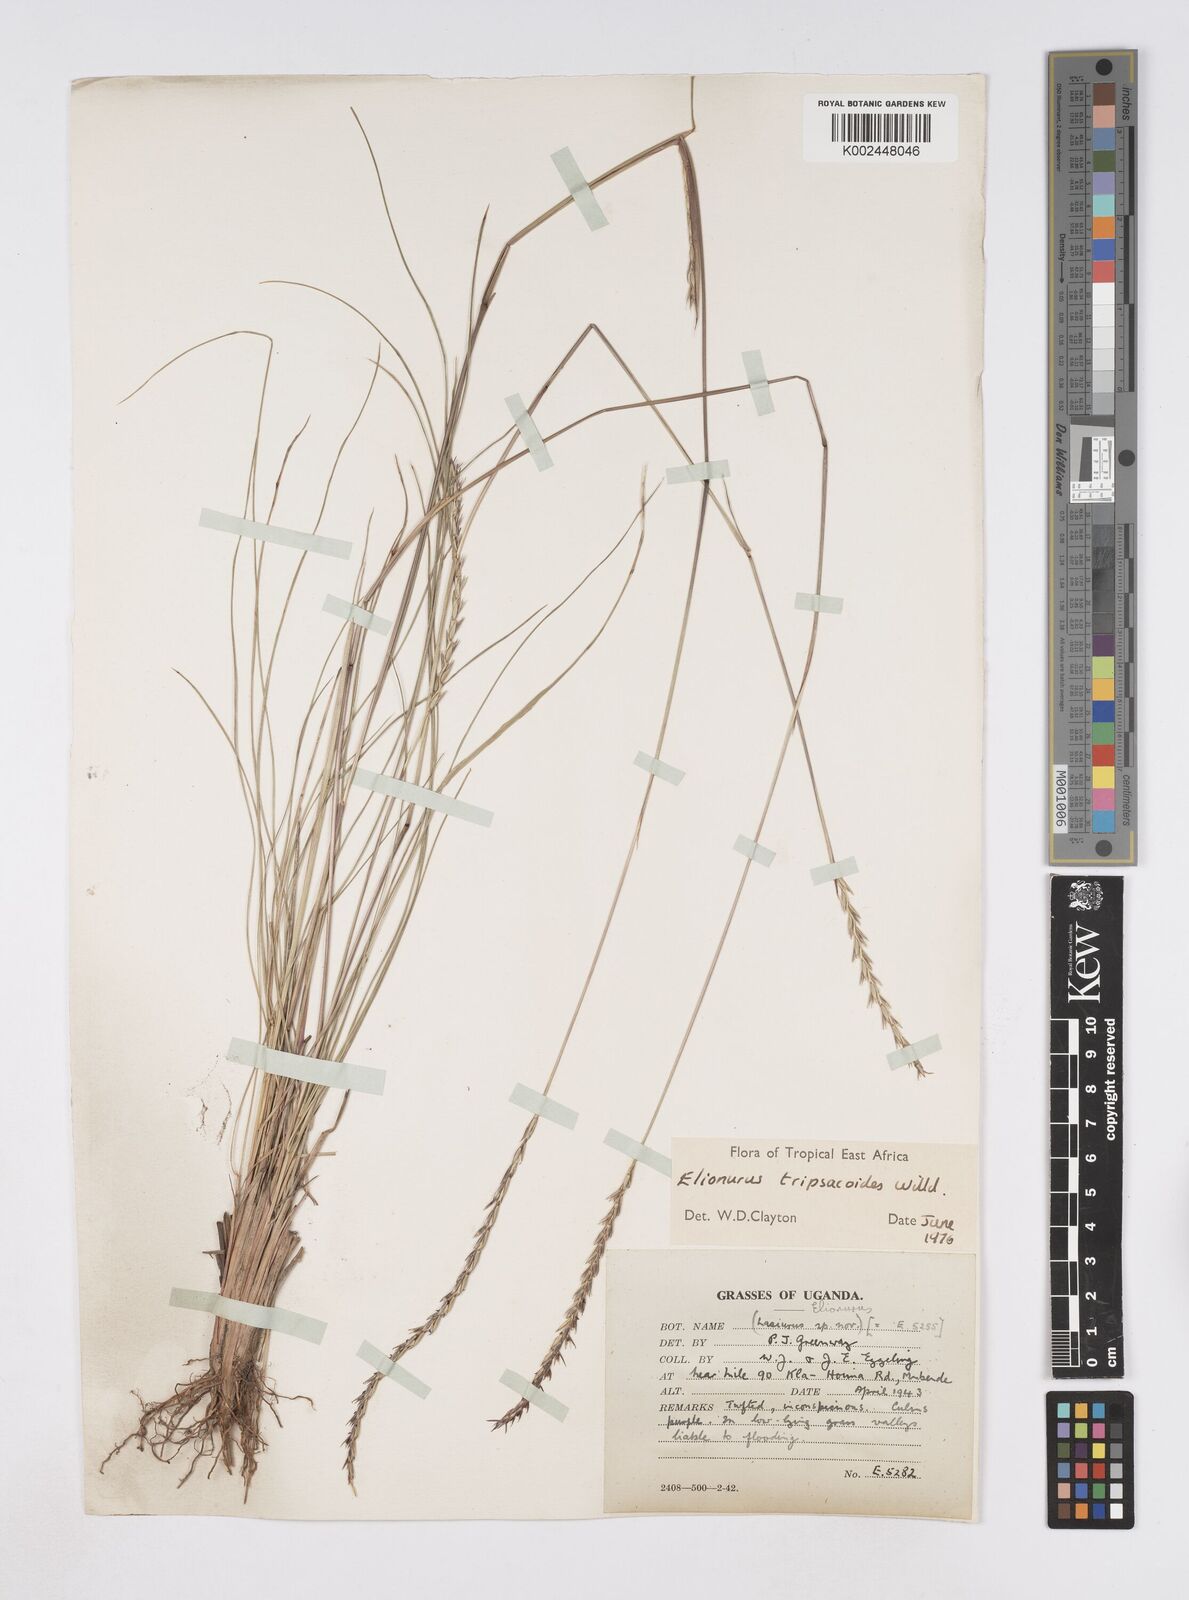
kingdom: Plantae
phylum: Tracheophyta
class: Liliopsida
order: Poales
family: Poaceae
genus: Elionurus
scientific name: Elionurus tripsacoides
